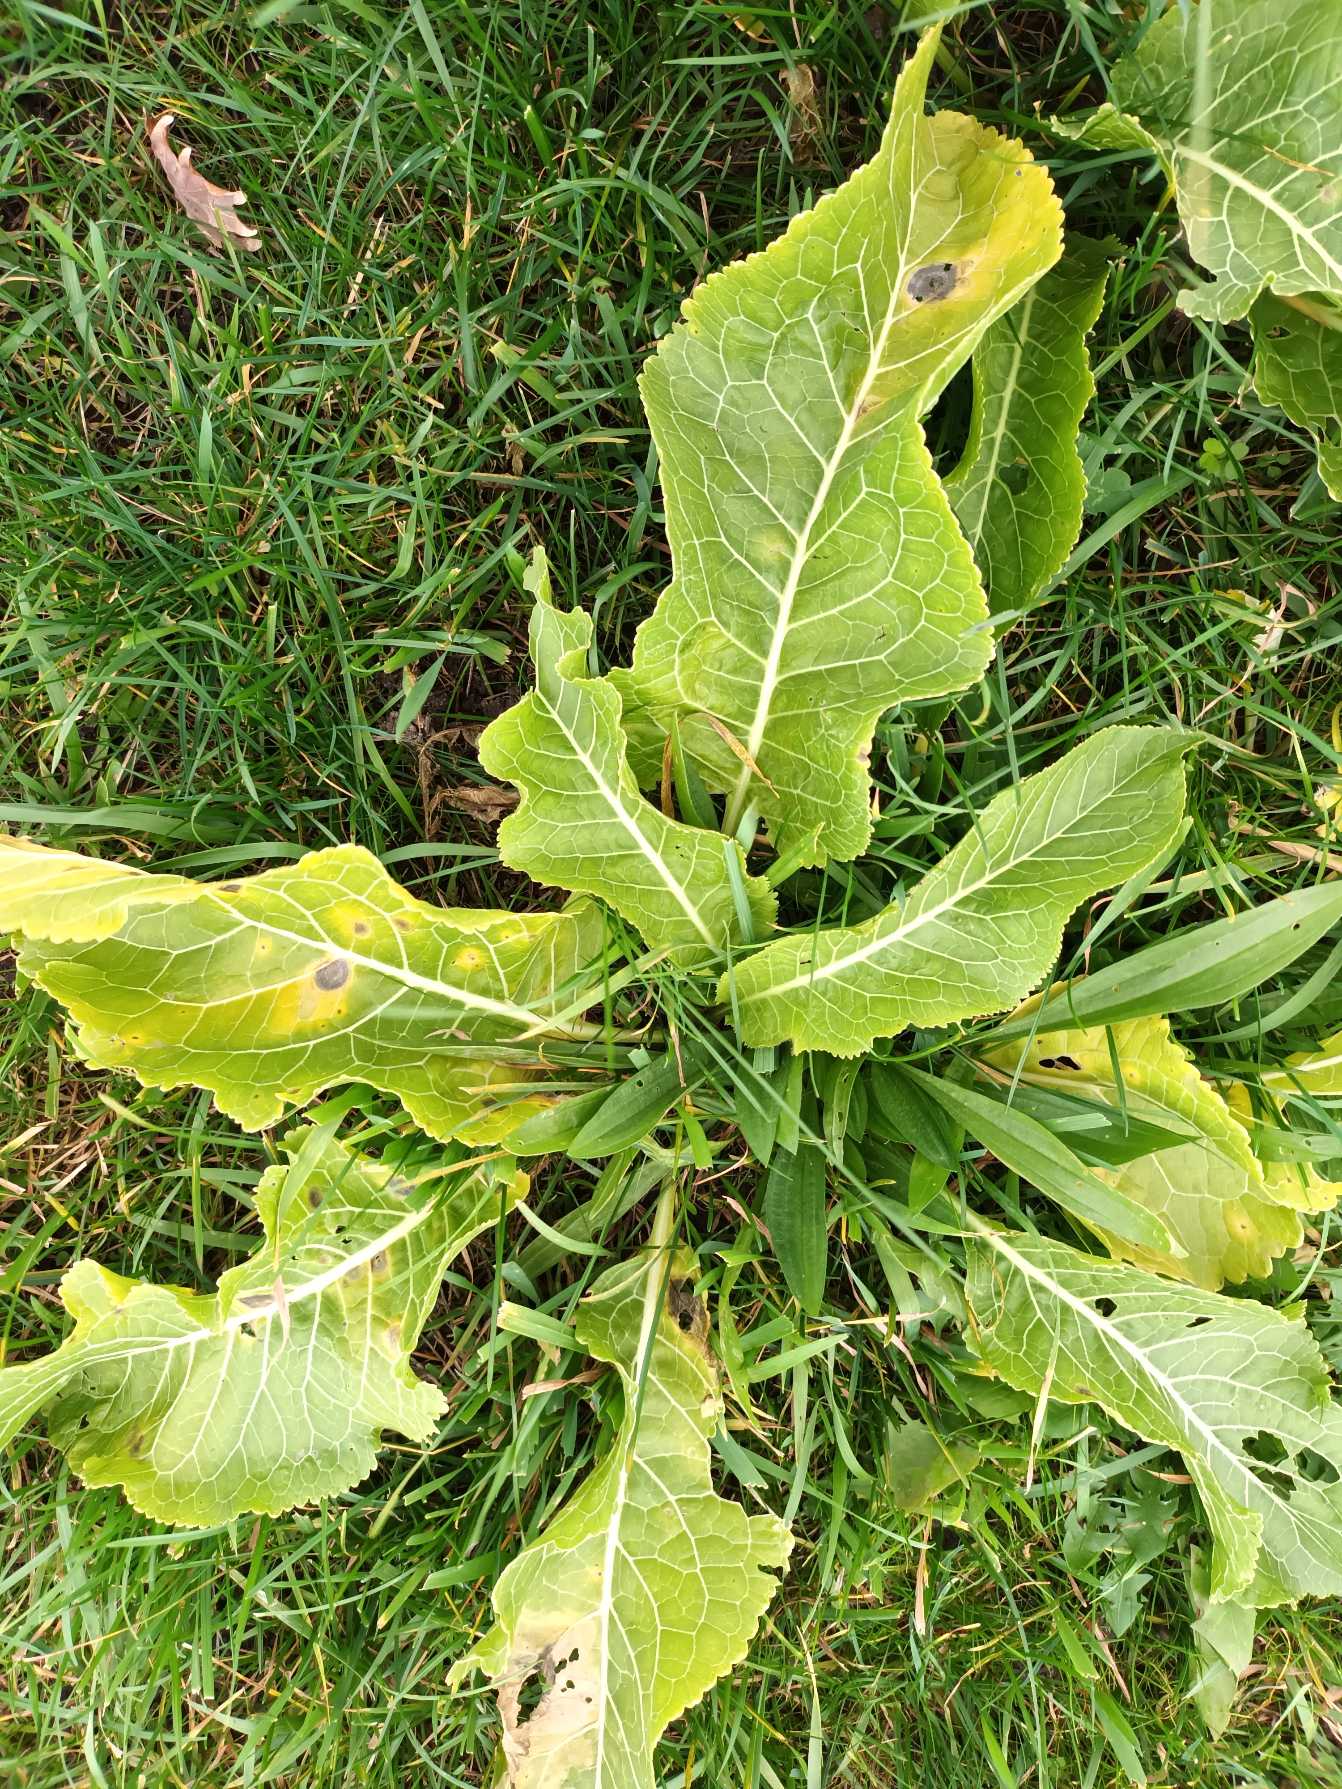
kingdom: Plantae
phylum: Tracheophyta
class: Magnoliopsida
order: Brassicales
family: Brassicaceae
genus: Armoracia
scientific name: Armoracia rusticana
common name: Peberrod
